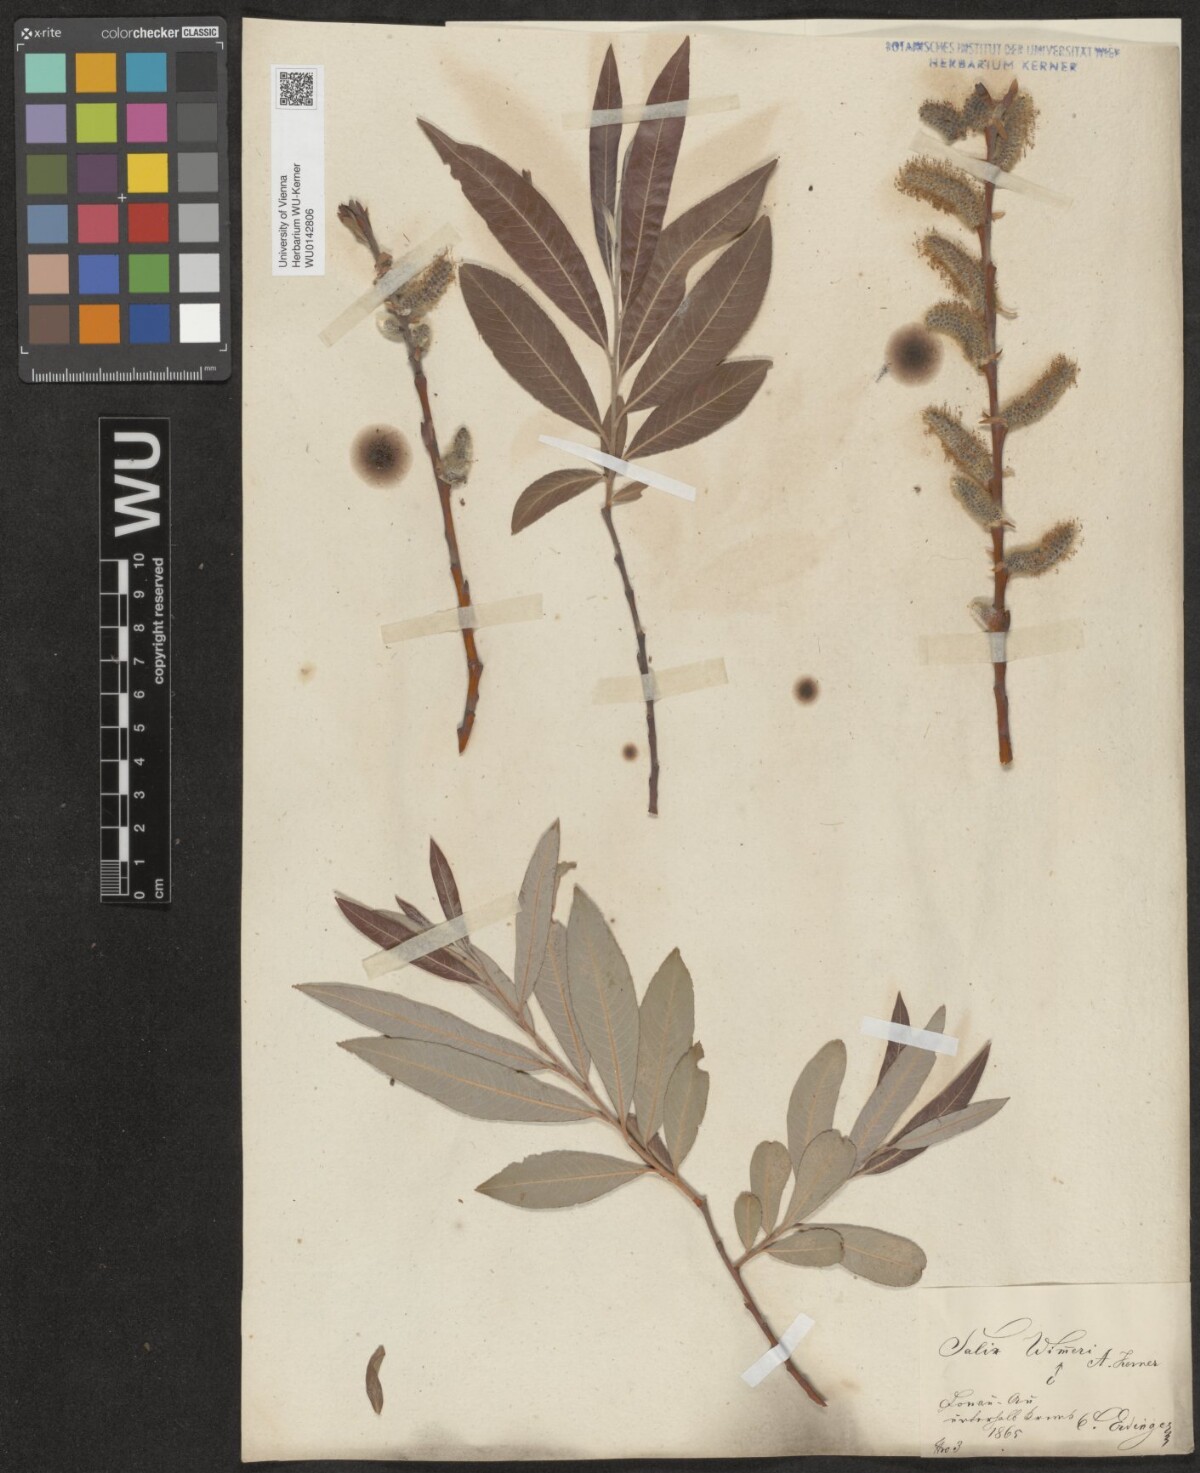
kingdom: Plantae
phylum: Tracheophyta
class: Magnoliopsida
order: Malpighiales
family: Salicaceae
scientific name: Salicaceae
